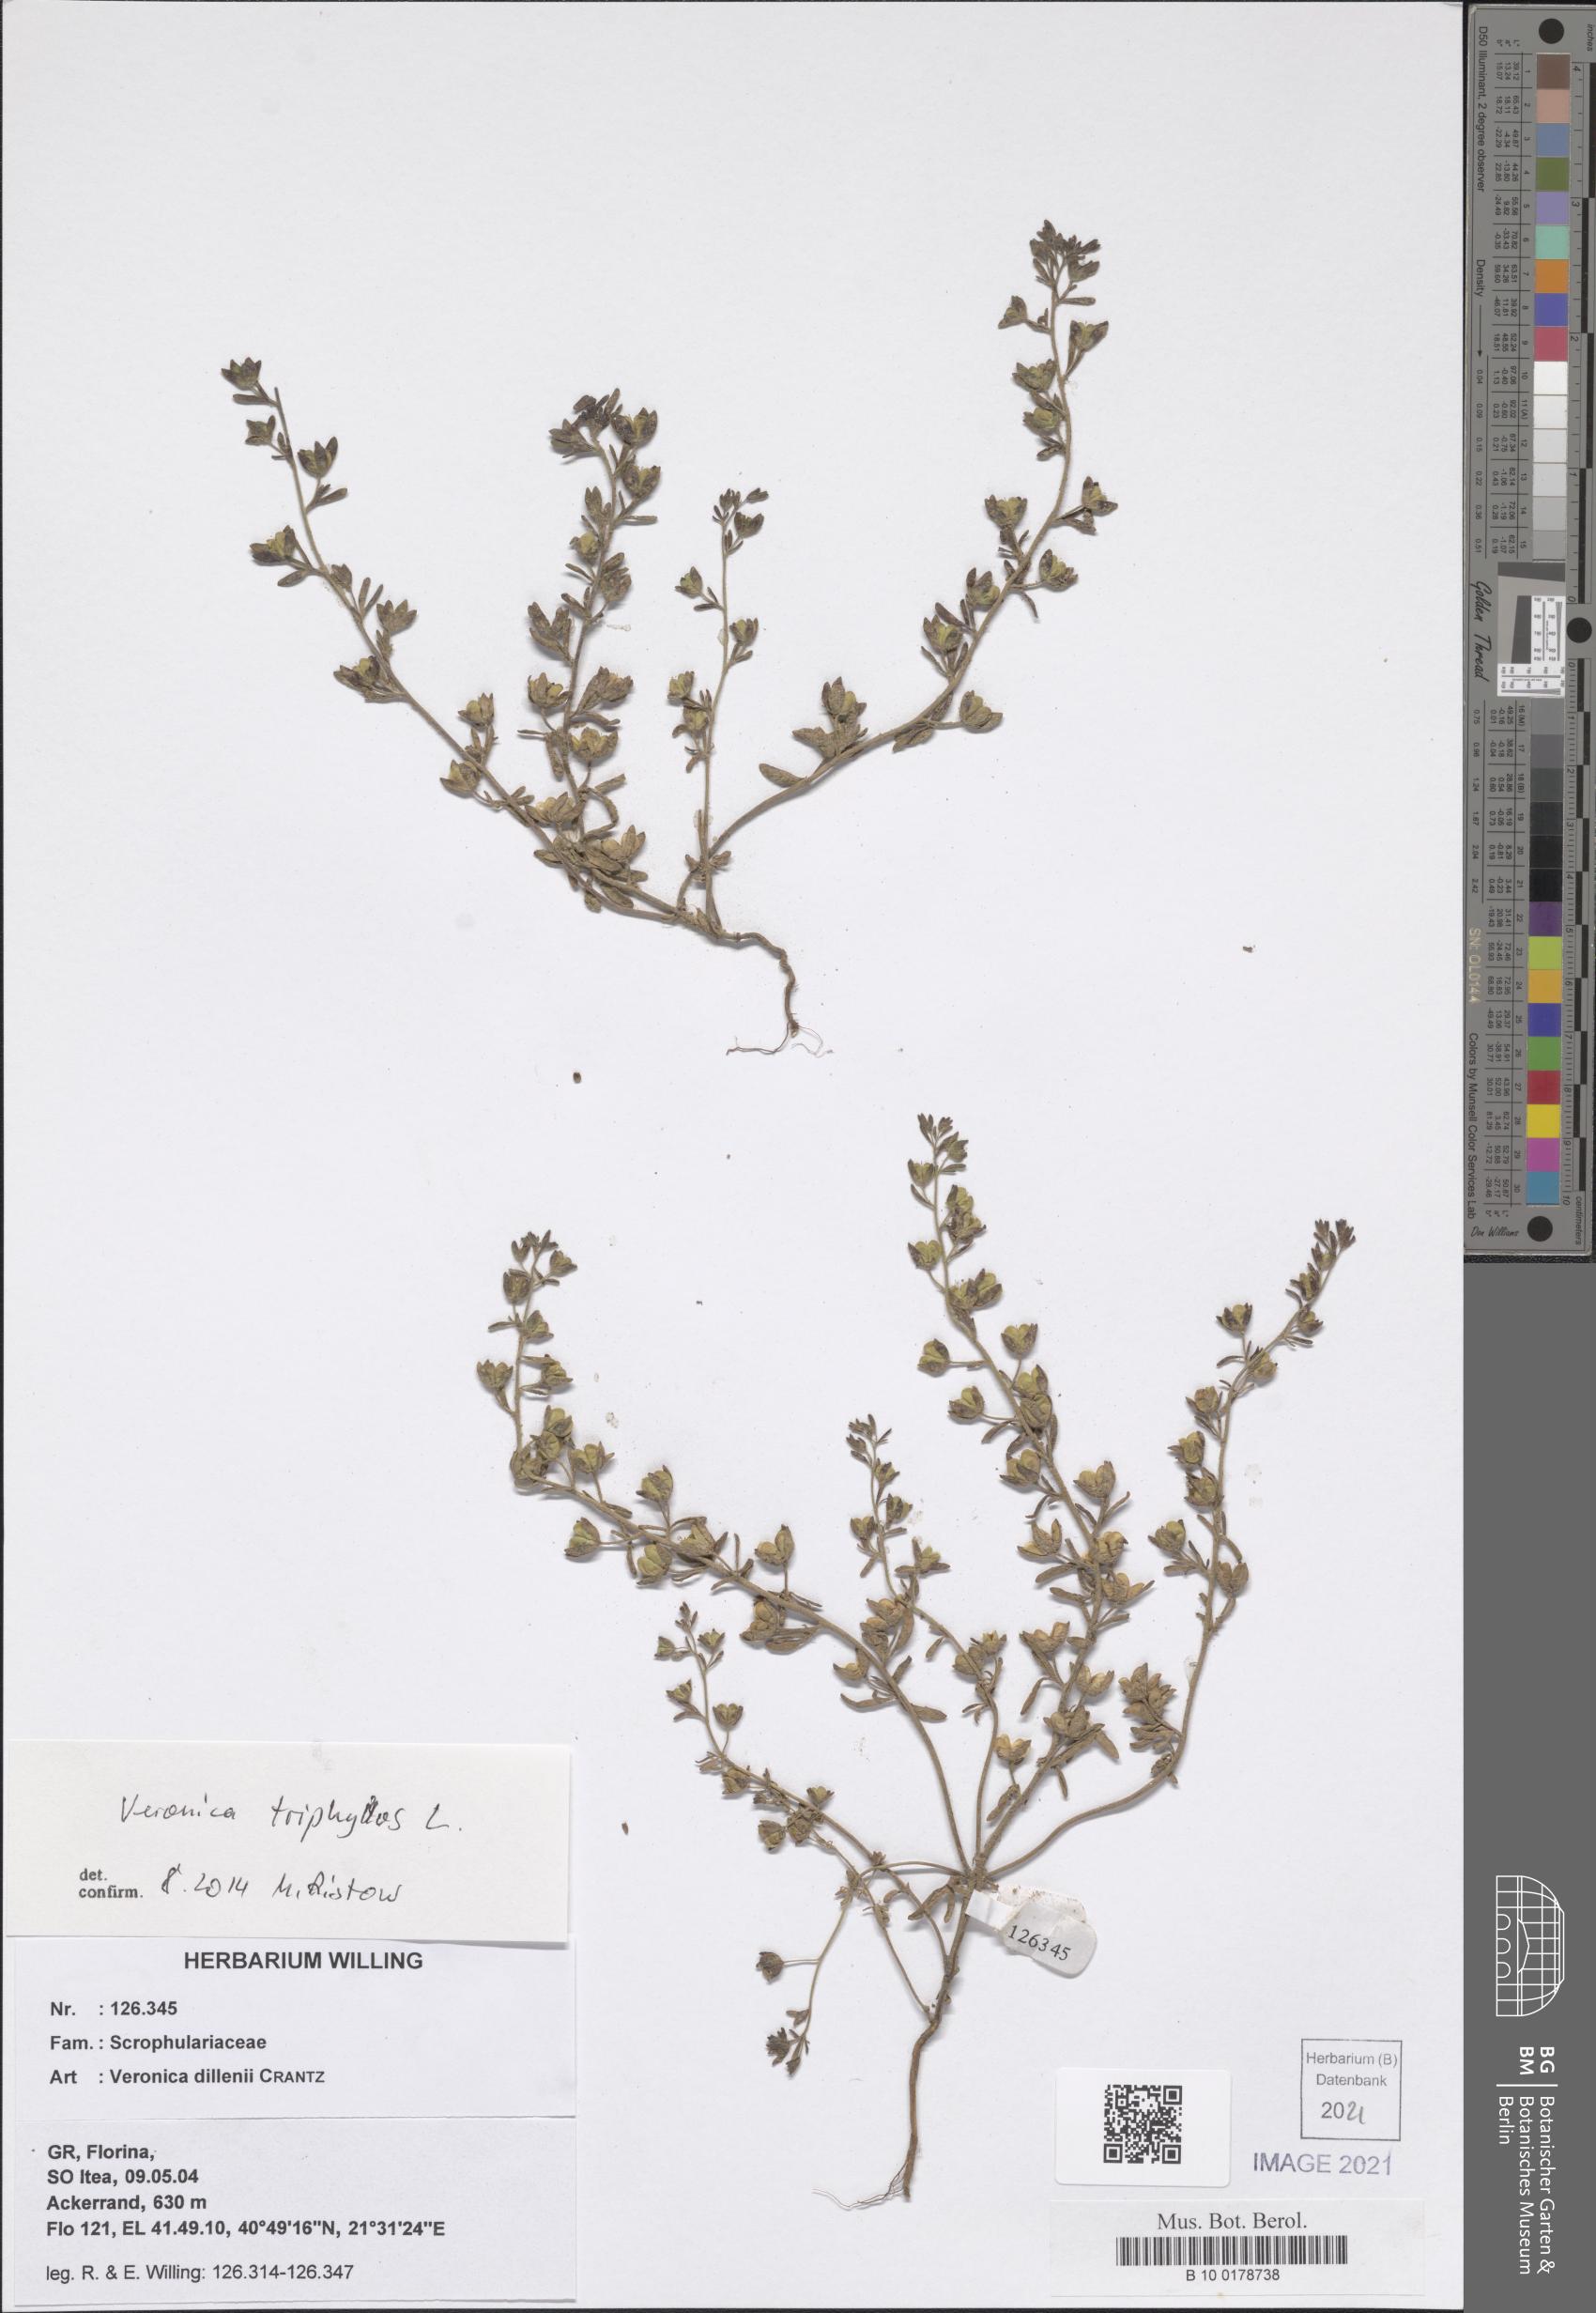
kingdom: Plantae
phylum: Tracheophyta
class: Magnoliopsida
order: Lamiales
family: Plantaginaceae
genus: Veronica
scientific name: Veronica triphyllos
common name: Fingered speedwell
